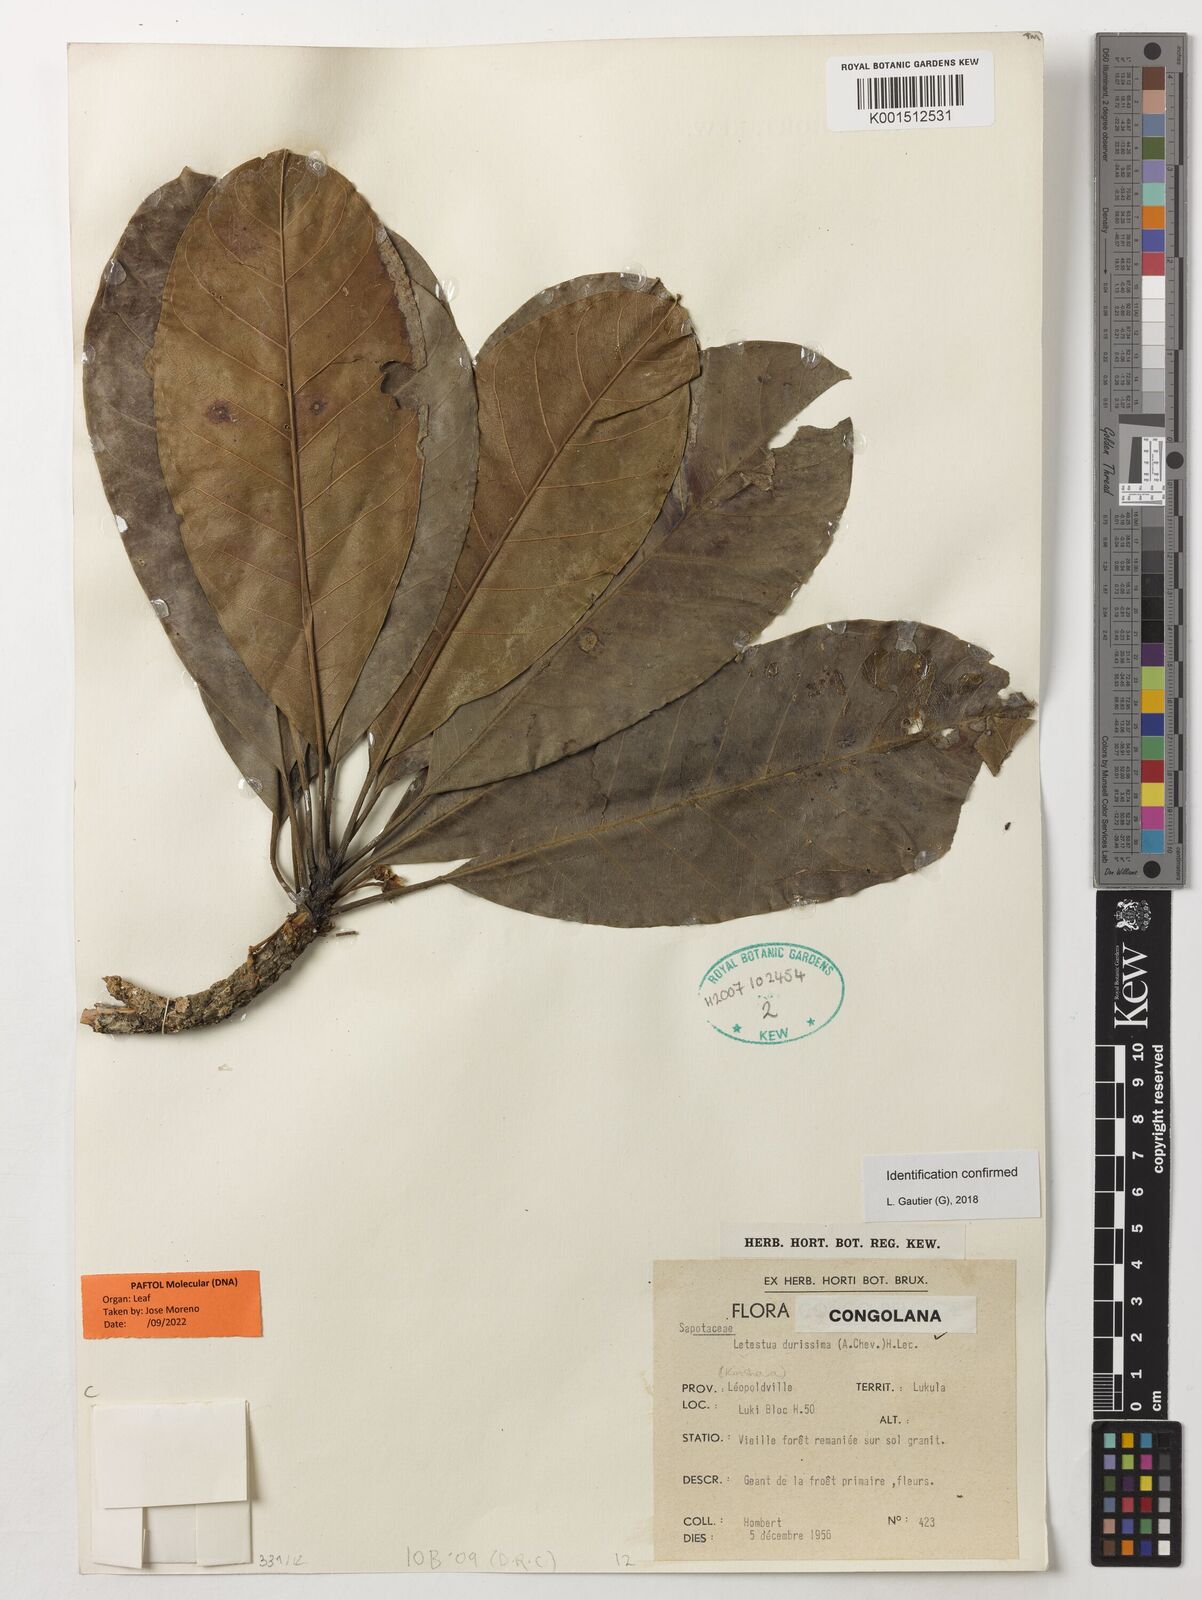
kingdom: Plantae
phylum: Tracheophyta
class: Magnoliopsida
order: Ericales
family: Sapotaceae
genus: Letestua
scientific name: Letestua durissima
